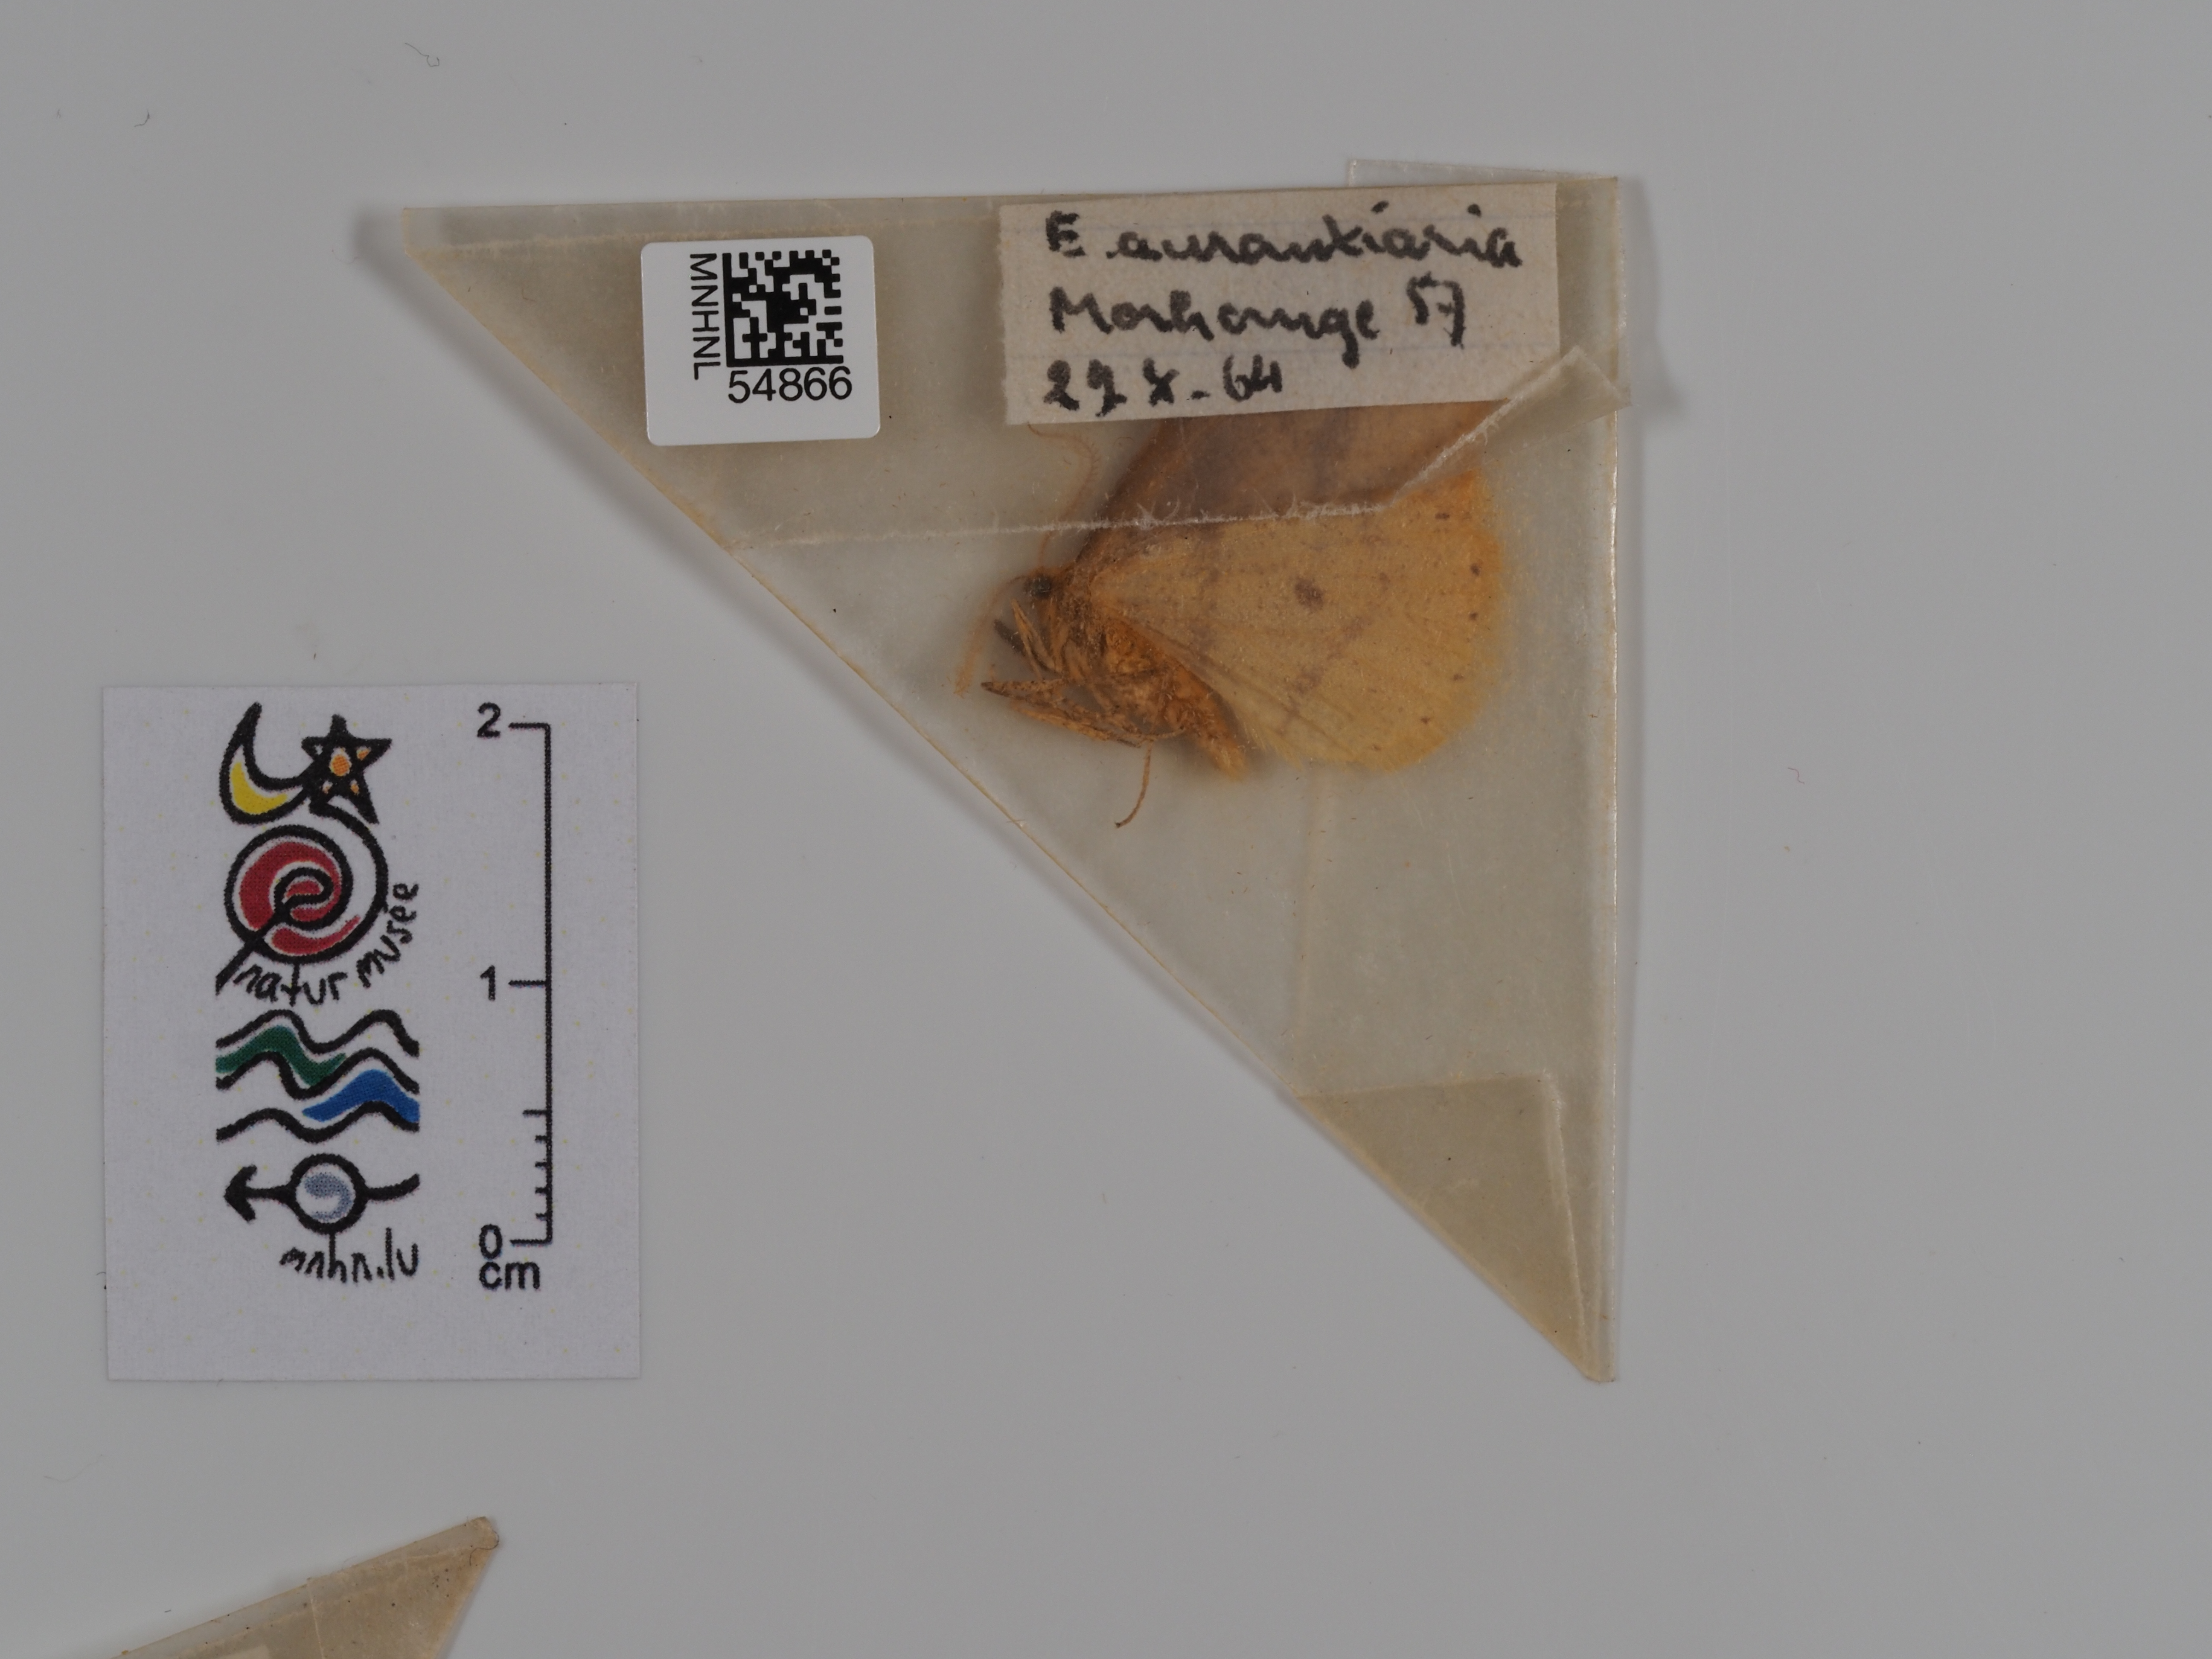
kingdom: Animalia
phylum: Arthropoda
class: Insecta
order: Lepidoptera
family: Geometridae
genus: Erannis
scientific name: Erannis
